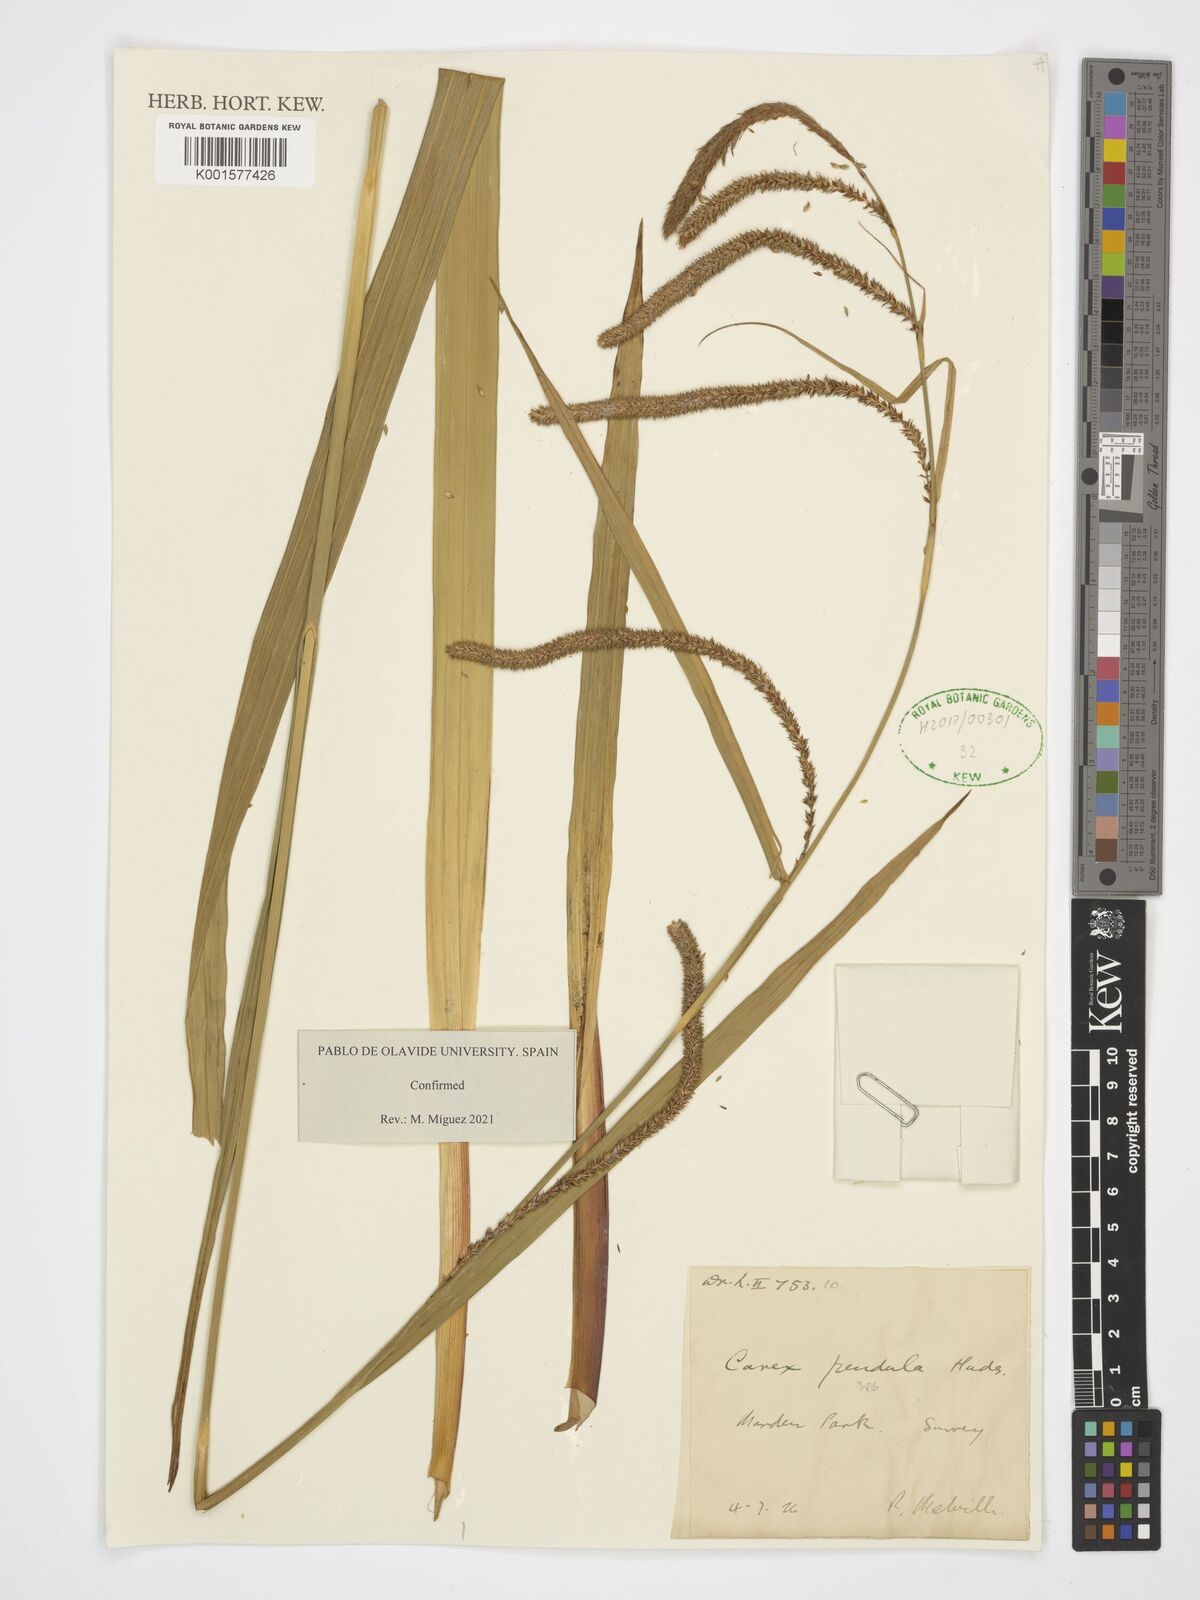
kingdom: Plantae
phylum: Tracheophyta
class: Liliopsida
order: Poales
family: Cyperaceae
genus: Carex
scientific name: Carex pendula
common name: Pendulous sedge
